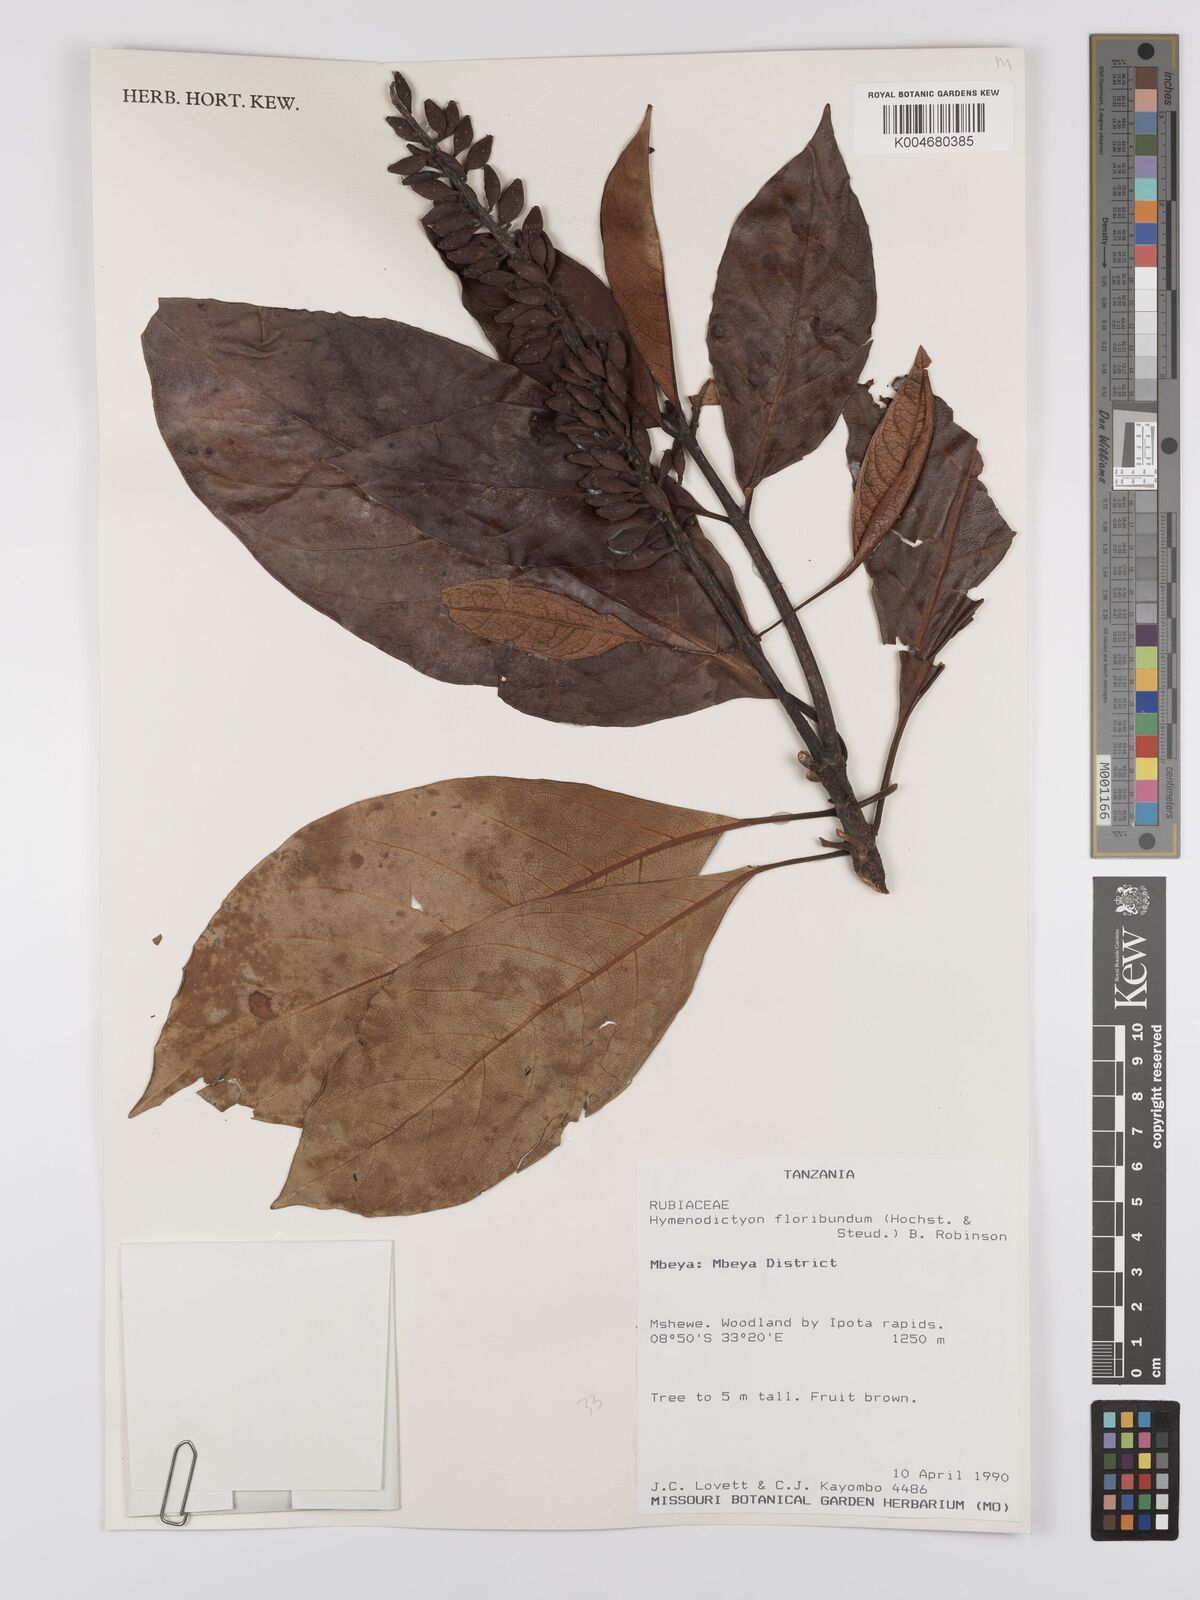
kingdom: Plantae
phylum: Tracheophyta
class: Magnoliopsida
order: Gentianales
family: Rubiaceae
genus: Hymenodictyon
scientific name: Hymenodictyon floribundum
